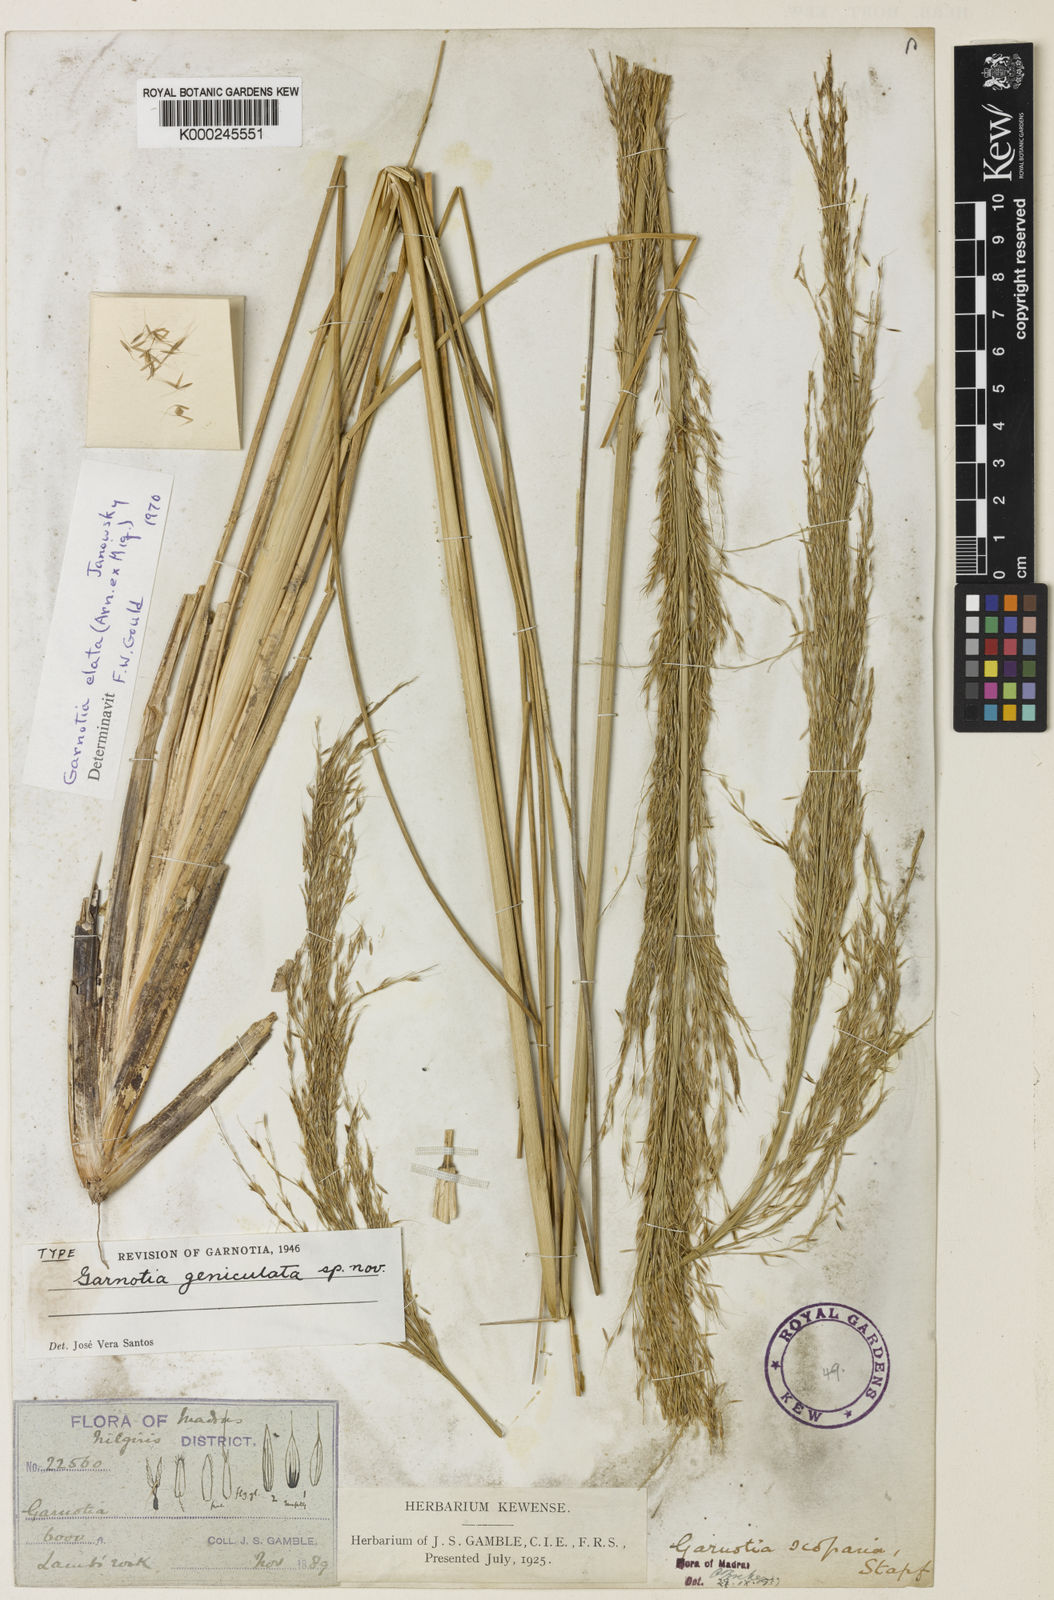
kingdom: Plantae
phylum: Tracheophyta
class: Liliopsida
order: Poales
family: Poaceae
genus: Garnotia
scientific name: Garnotia elata
